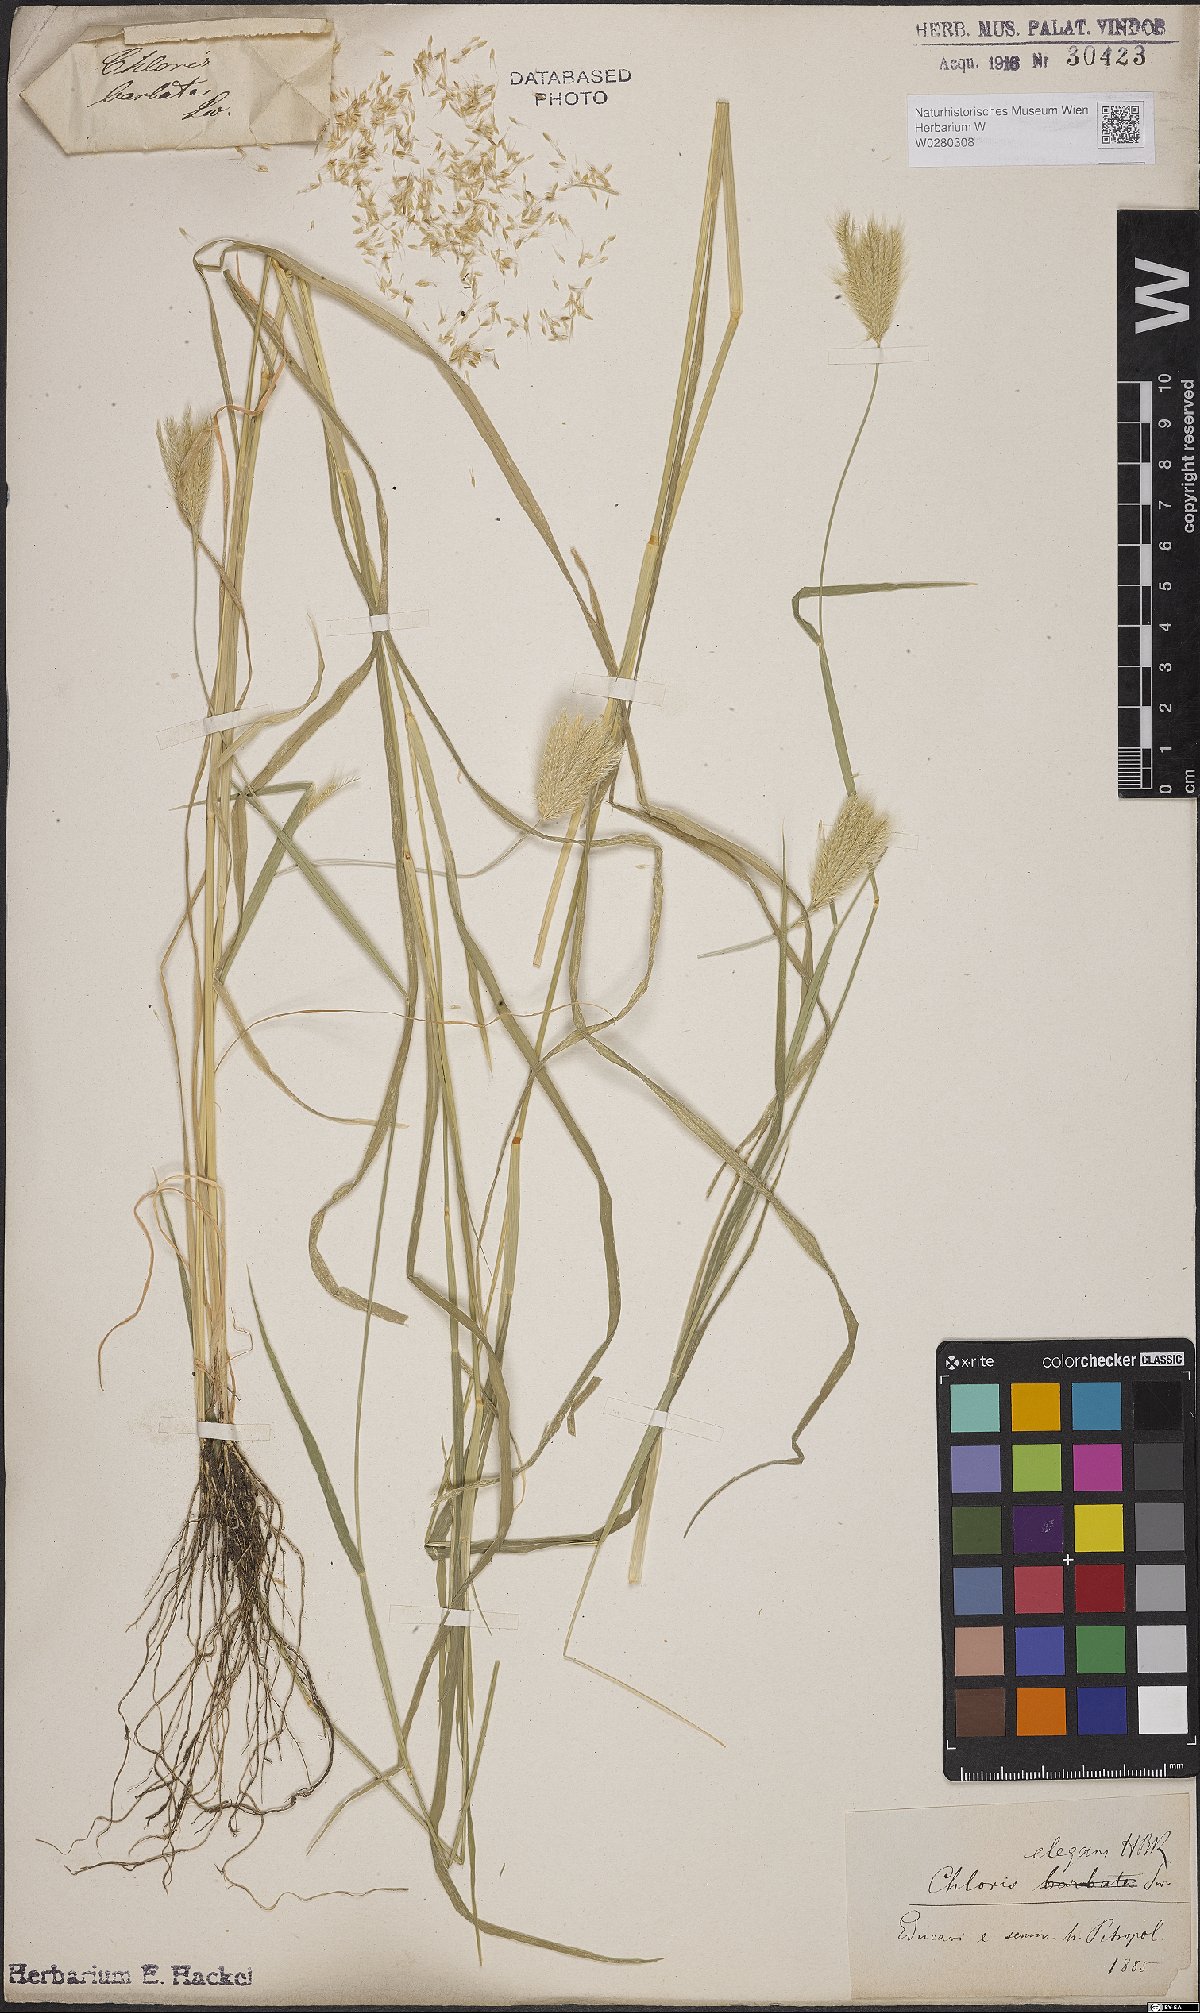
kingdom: Plantae
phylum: Tracheophyta
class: Liliopsida
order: Poales
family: Poaceae
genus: Chloris
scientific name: Chloris virgata
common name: Feathery rhodes-grass
